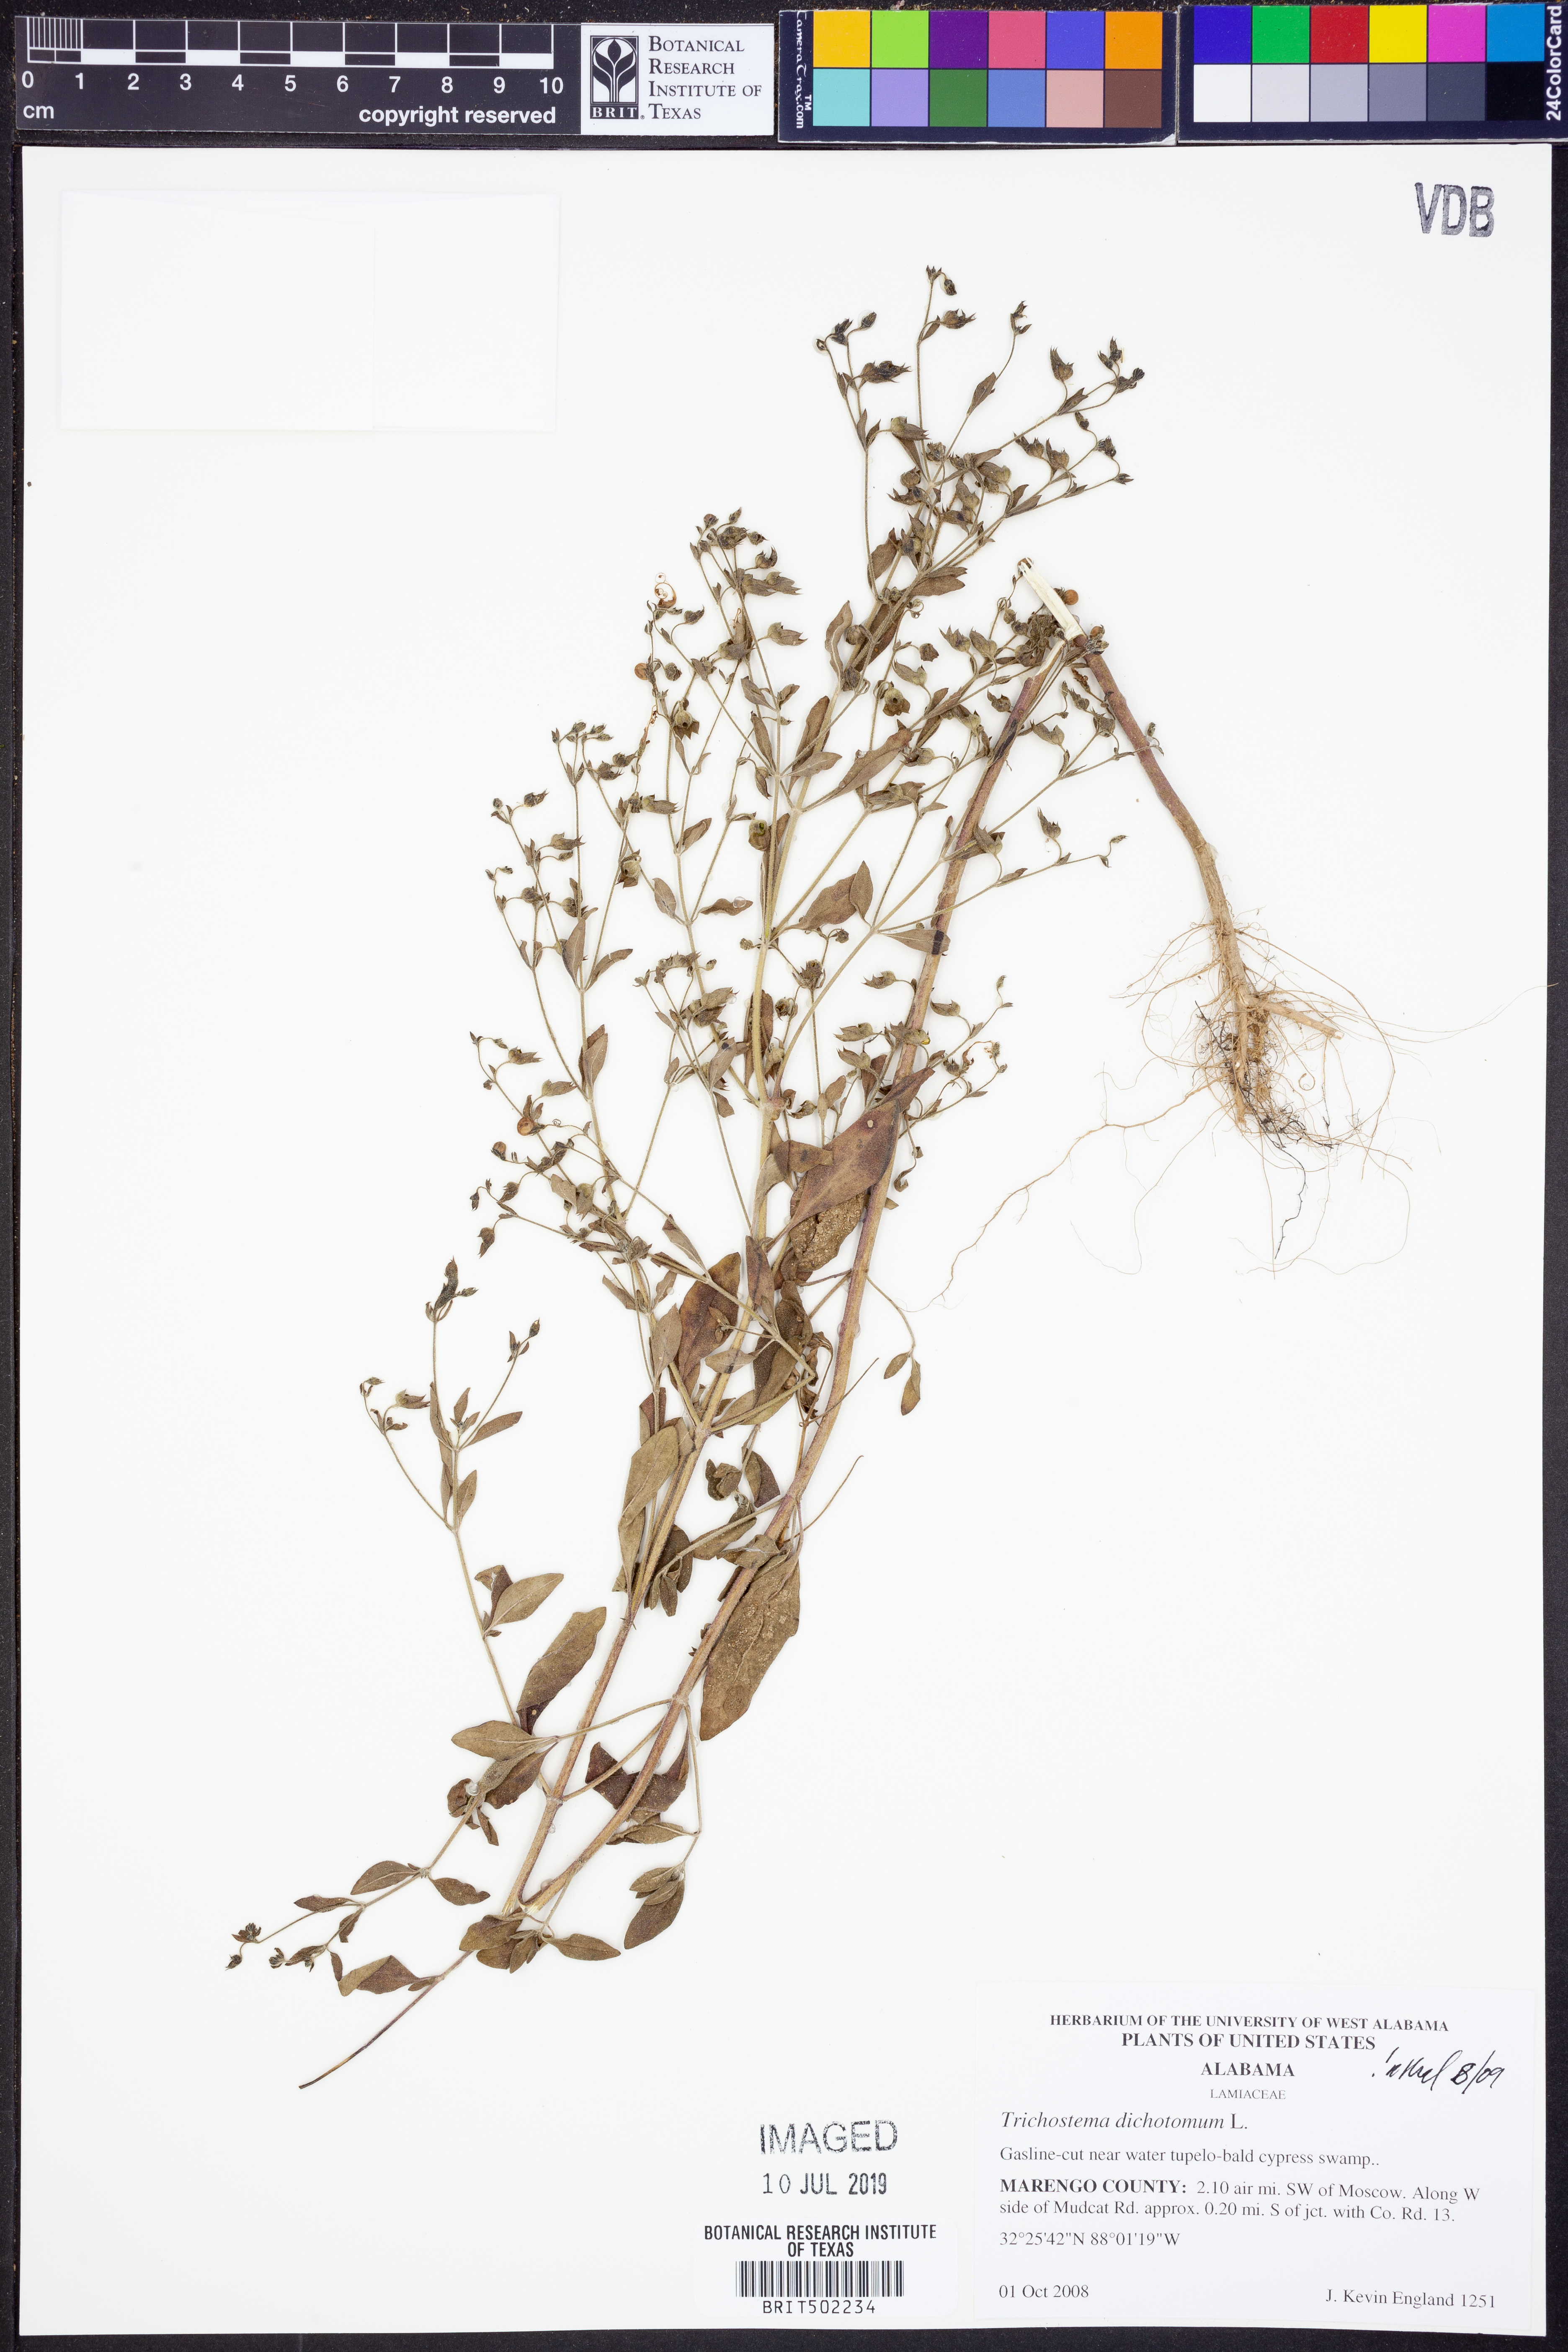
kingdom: Plantae
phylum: Tracheophyta
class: Magnoliopsida
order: Lamiales
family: Lamiaceae
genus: Trichostema
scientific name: Trichostema dichotomum
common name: Bastard pennyroyal
